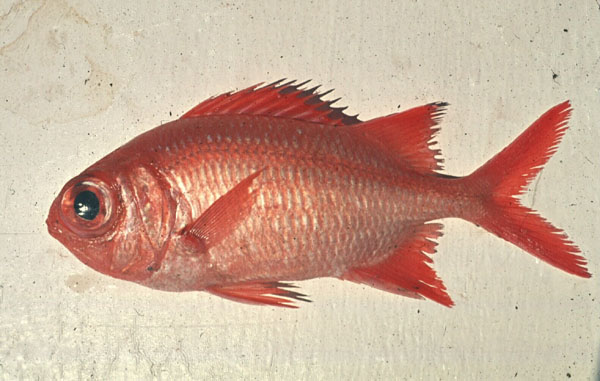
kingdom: Animalia
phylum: Chordata
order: Beryciformes
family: Holocentridae
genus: Myripristis
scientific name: Myripristis vittata
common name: Immaculate squirrelfish
